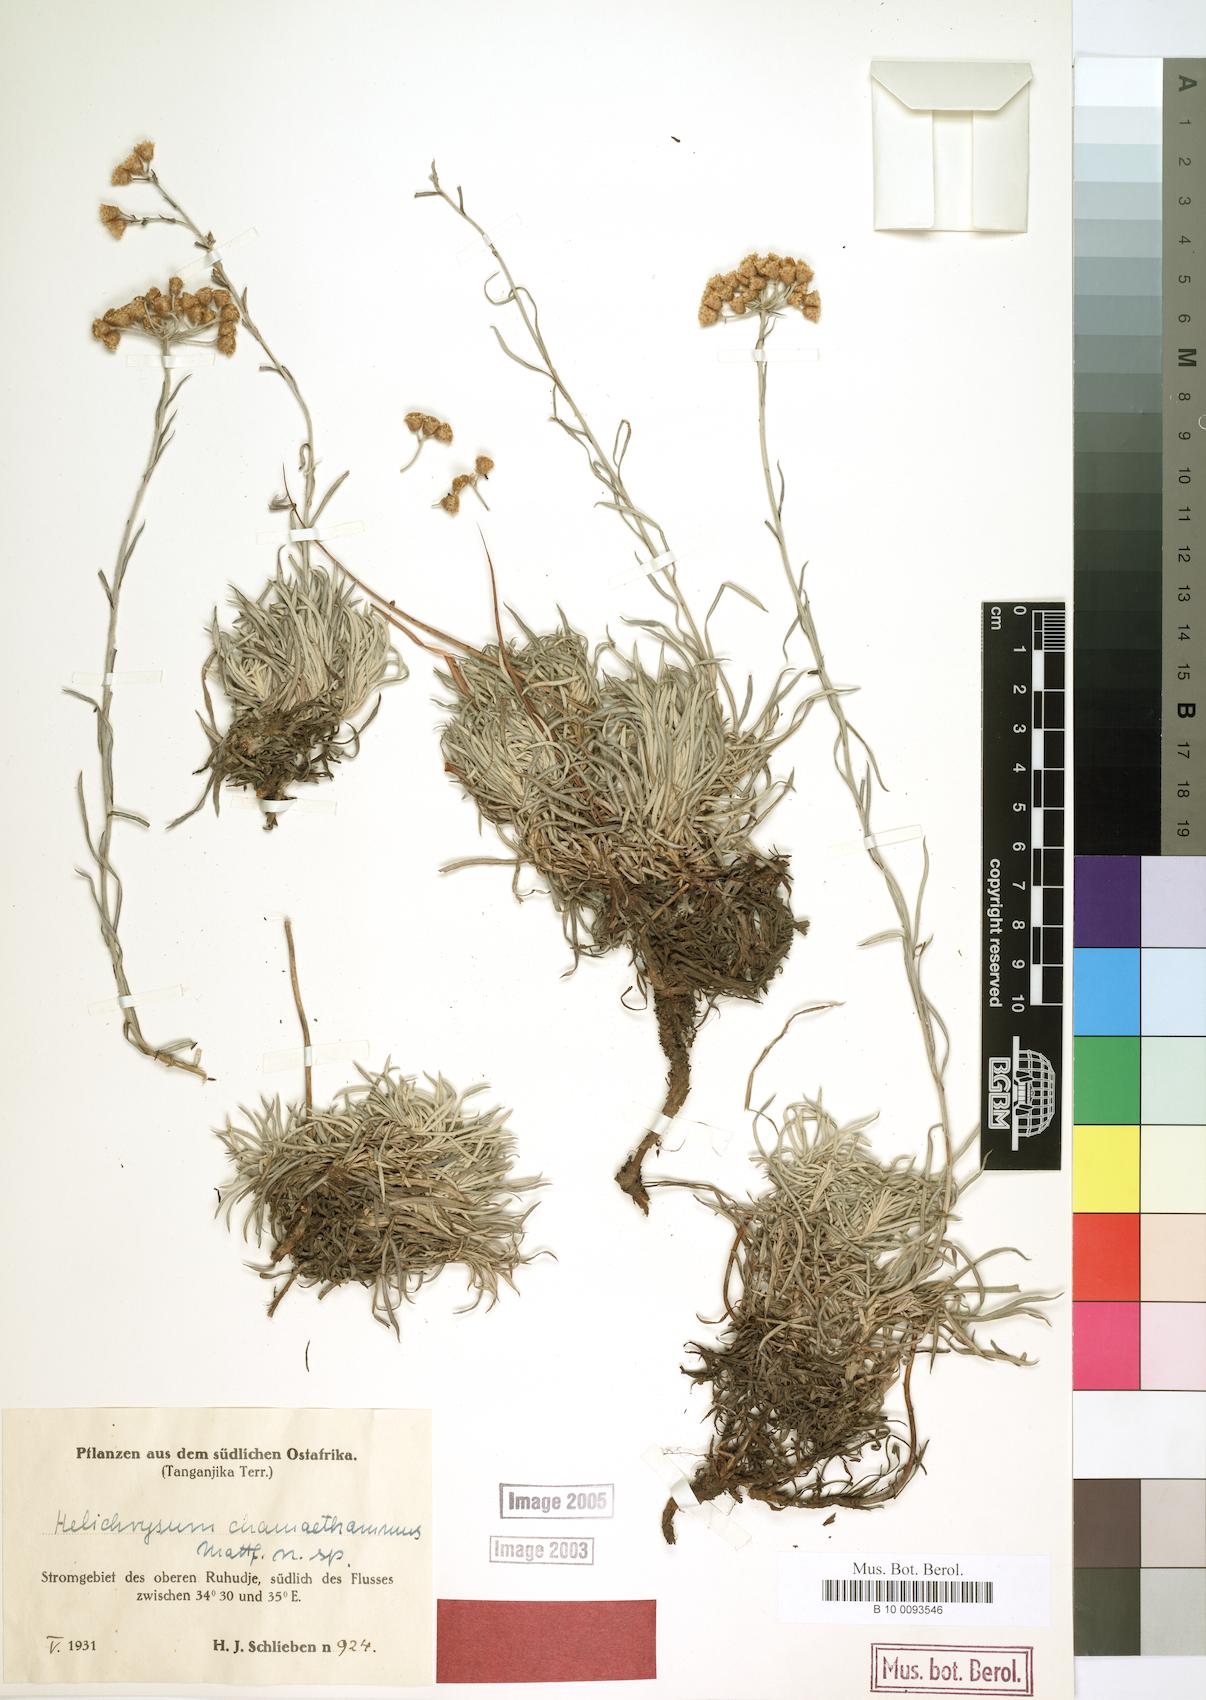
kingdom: Plantae
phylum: Tracheophyta
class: Magnoliopsida
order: Asterales
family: Asteraceae
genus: Helichrysum
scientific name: Helichrysum tillandsiifolium
